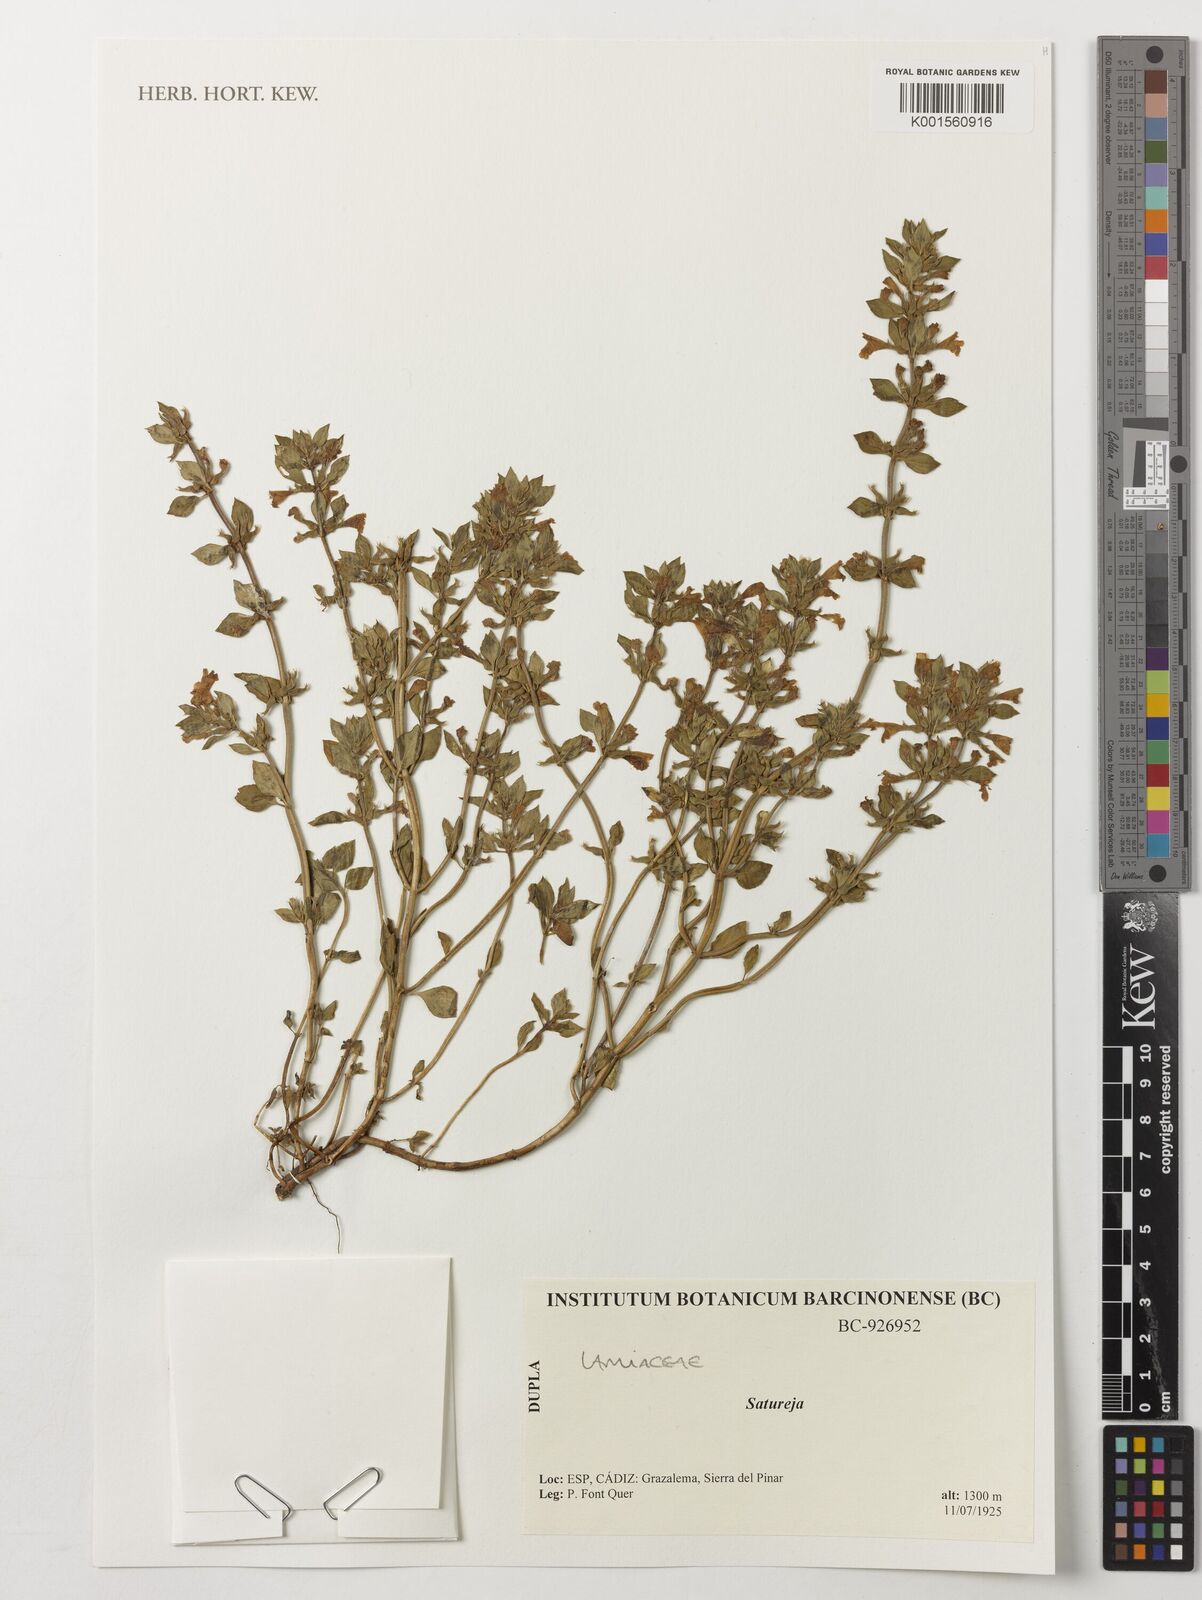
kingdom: Plantae
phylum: Tracheophyta
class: Magnoliopsida
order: Lamiales
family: Lamiaceae
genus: Satureja
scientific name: Satureja
